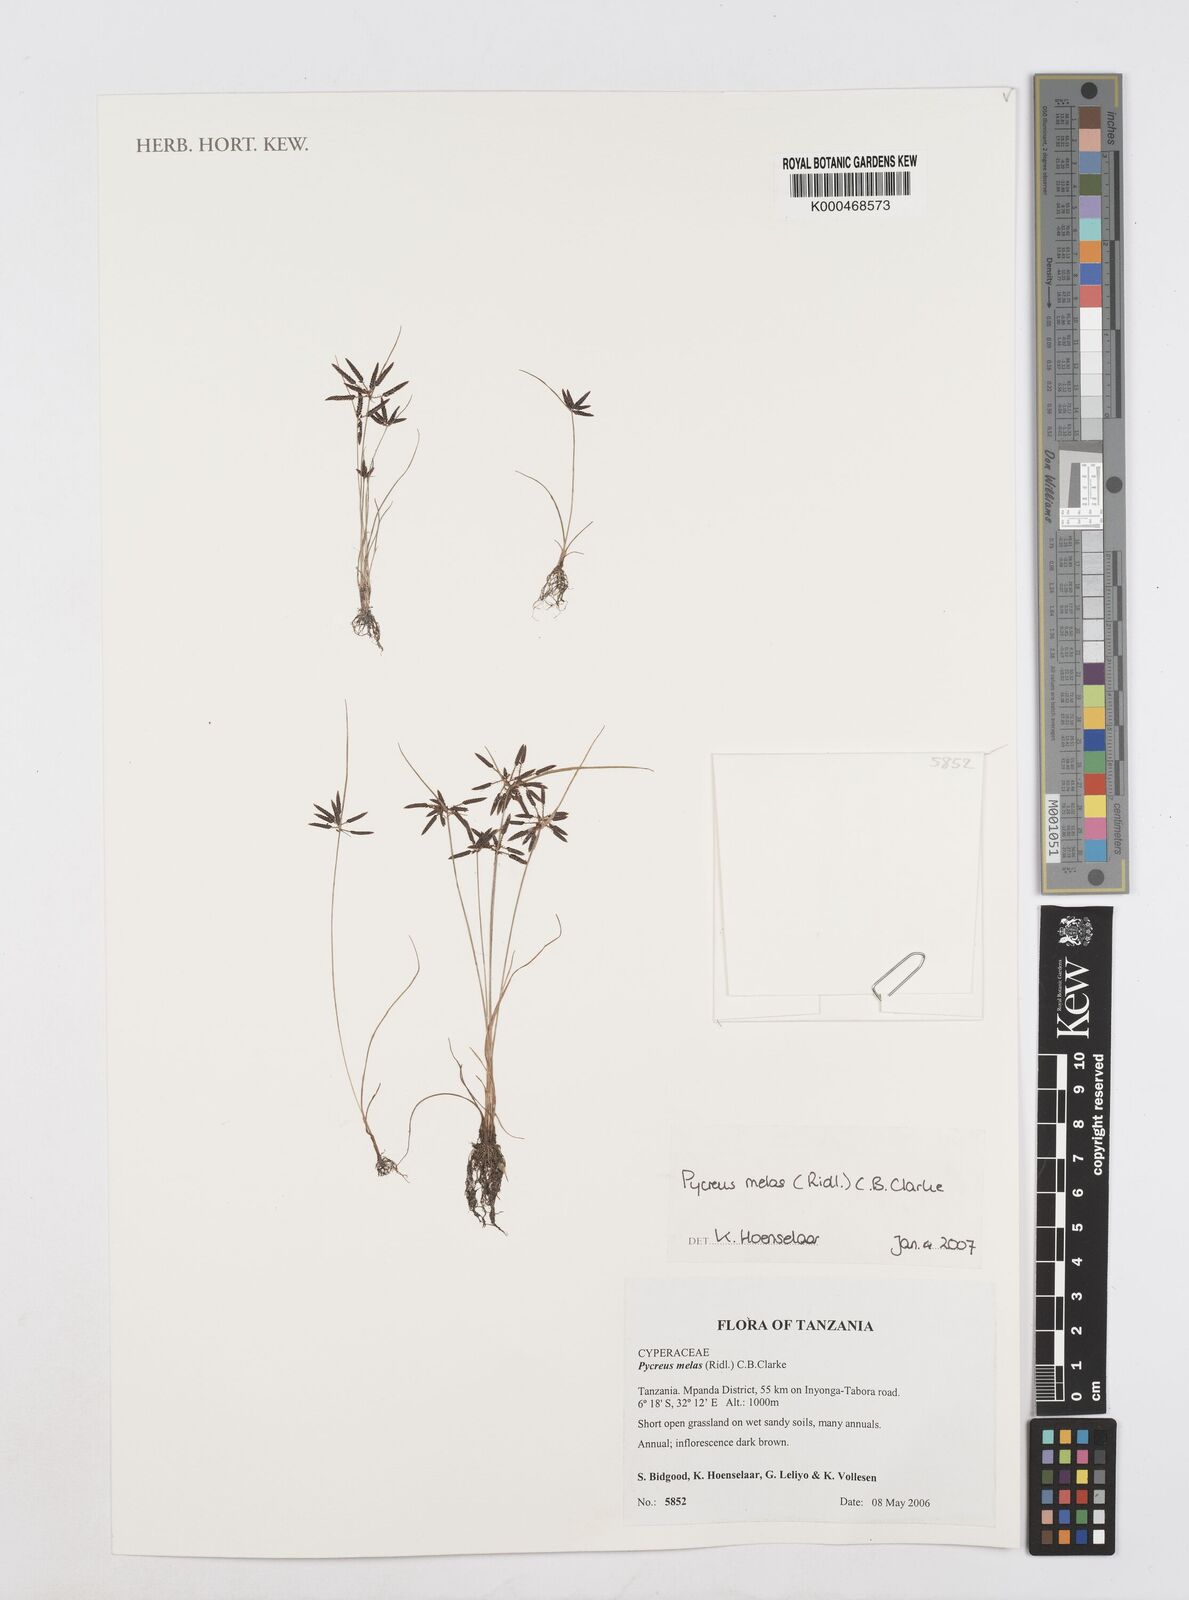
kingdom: Plantae
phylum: Tracheophyta
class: Liliopsida
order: Poales
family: Cyperaceae
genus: Cyperus
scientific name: Cyperus melas
